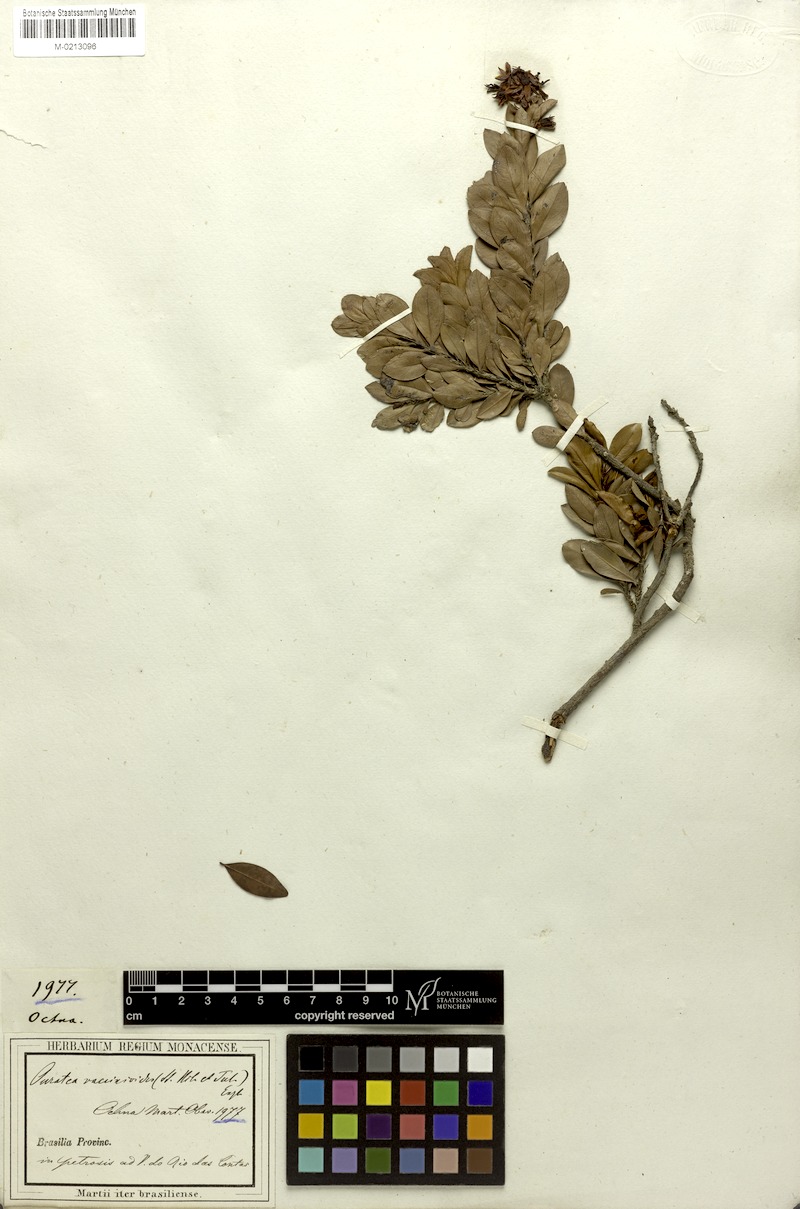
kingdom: Plantae
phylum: Tracheophyta
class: Magnoliopsida
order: Malpighiales
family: Ochnaceae
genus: Ouratea
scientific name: Ouratea vaccinioides
